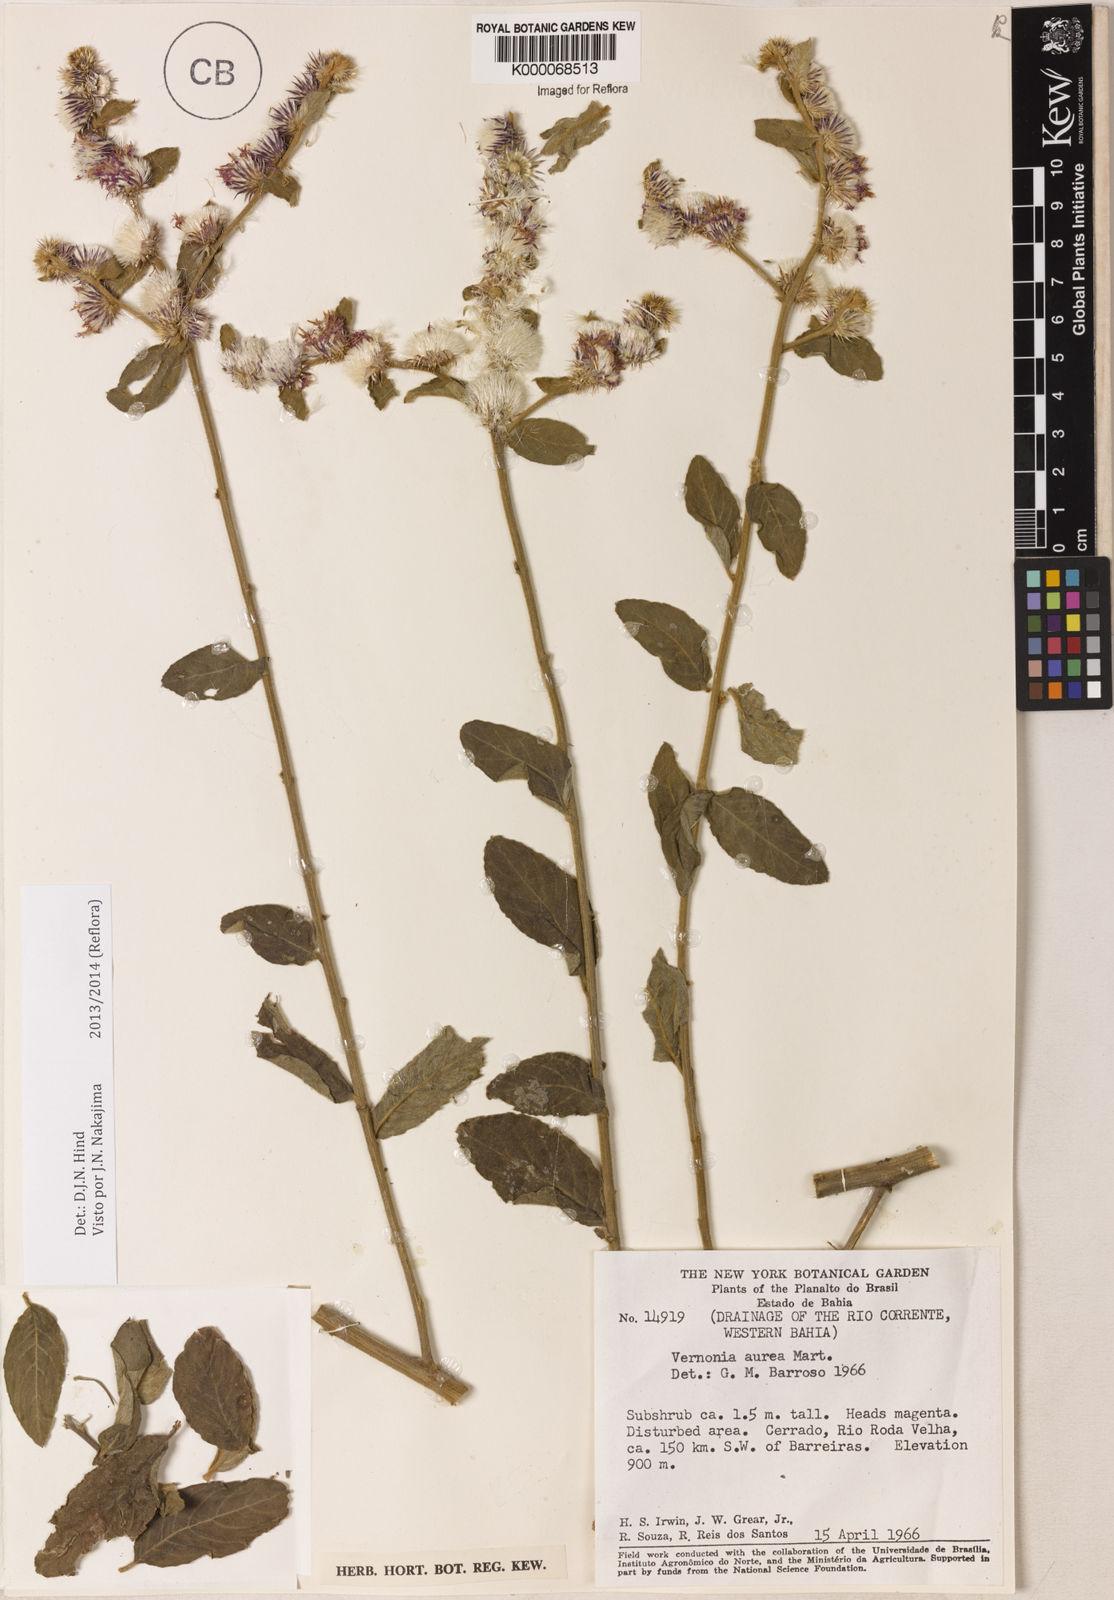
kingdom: Plantae
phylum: Tracheophyta
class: Magnoliopsida
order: Asterales
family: Asteraceae
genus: Lepidaploa
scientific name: Lepidaploa aurea
